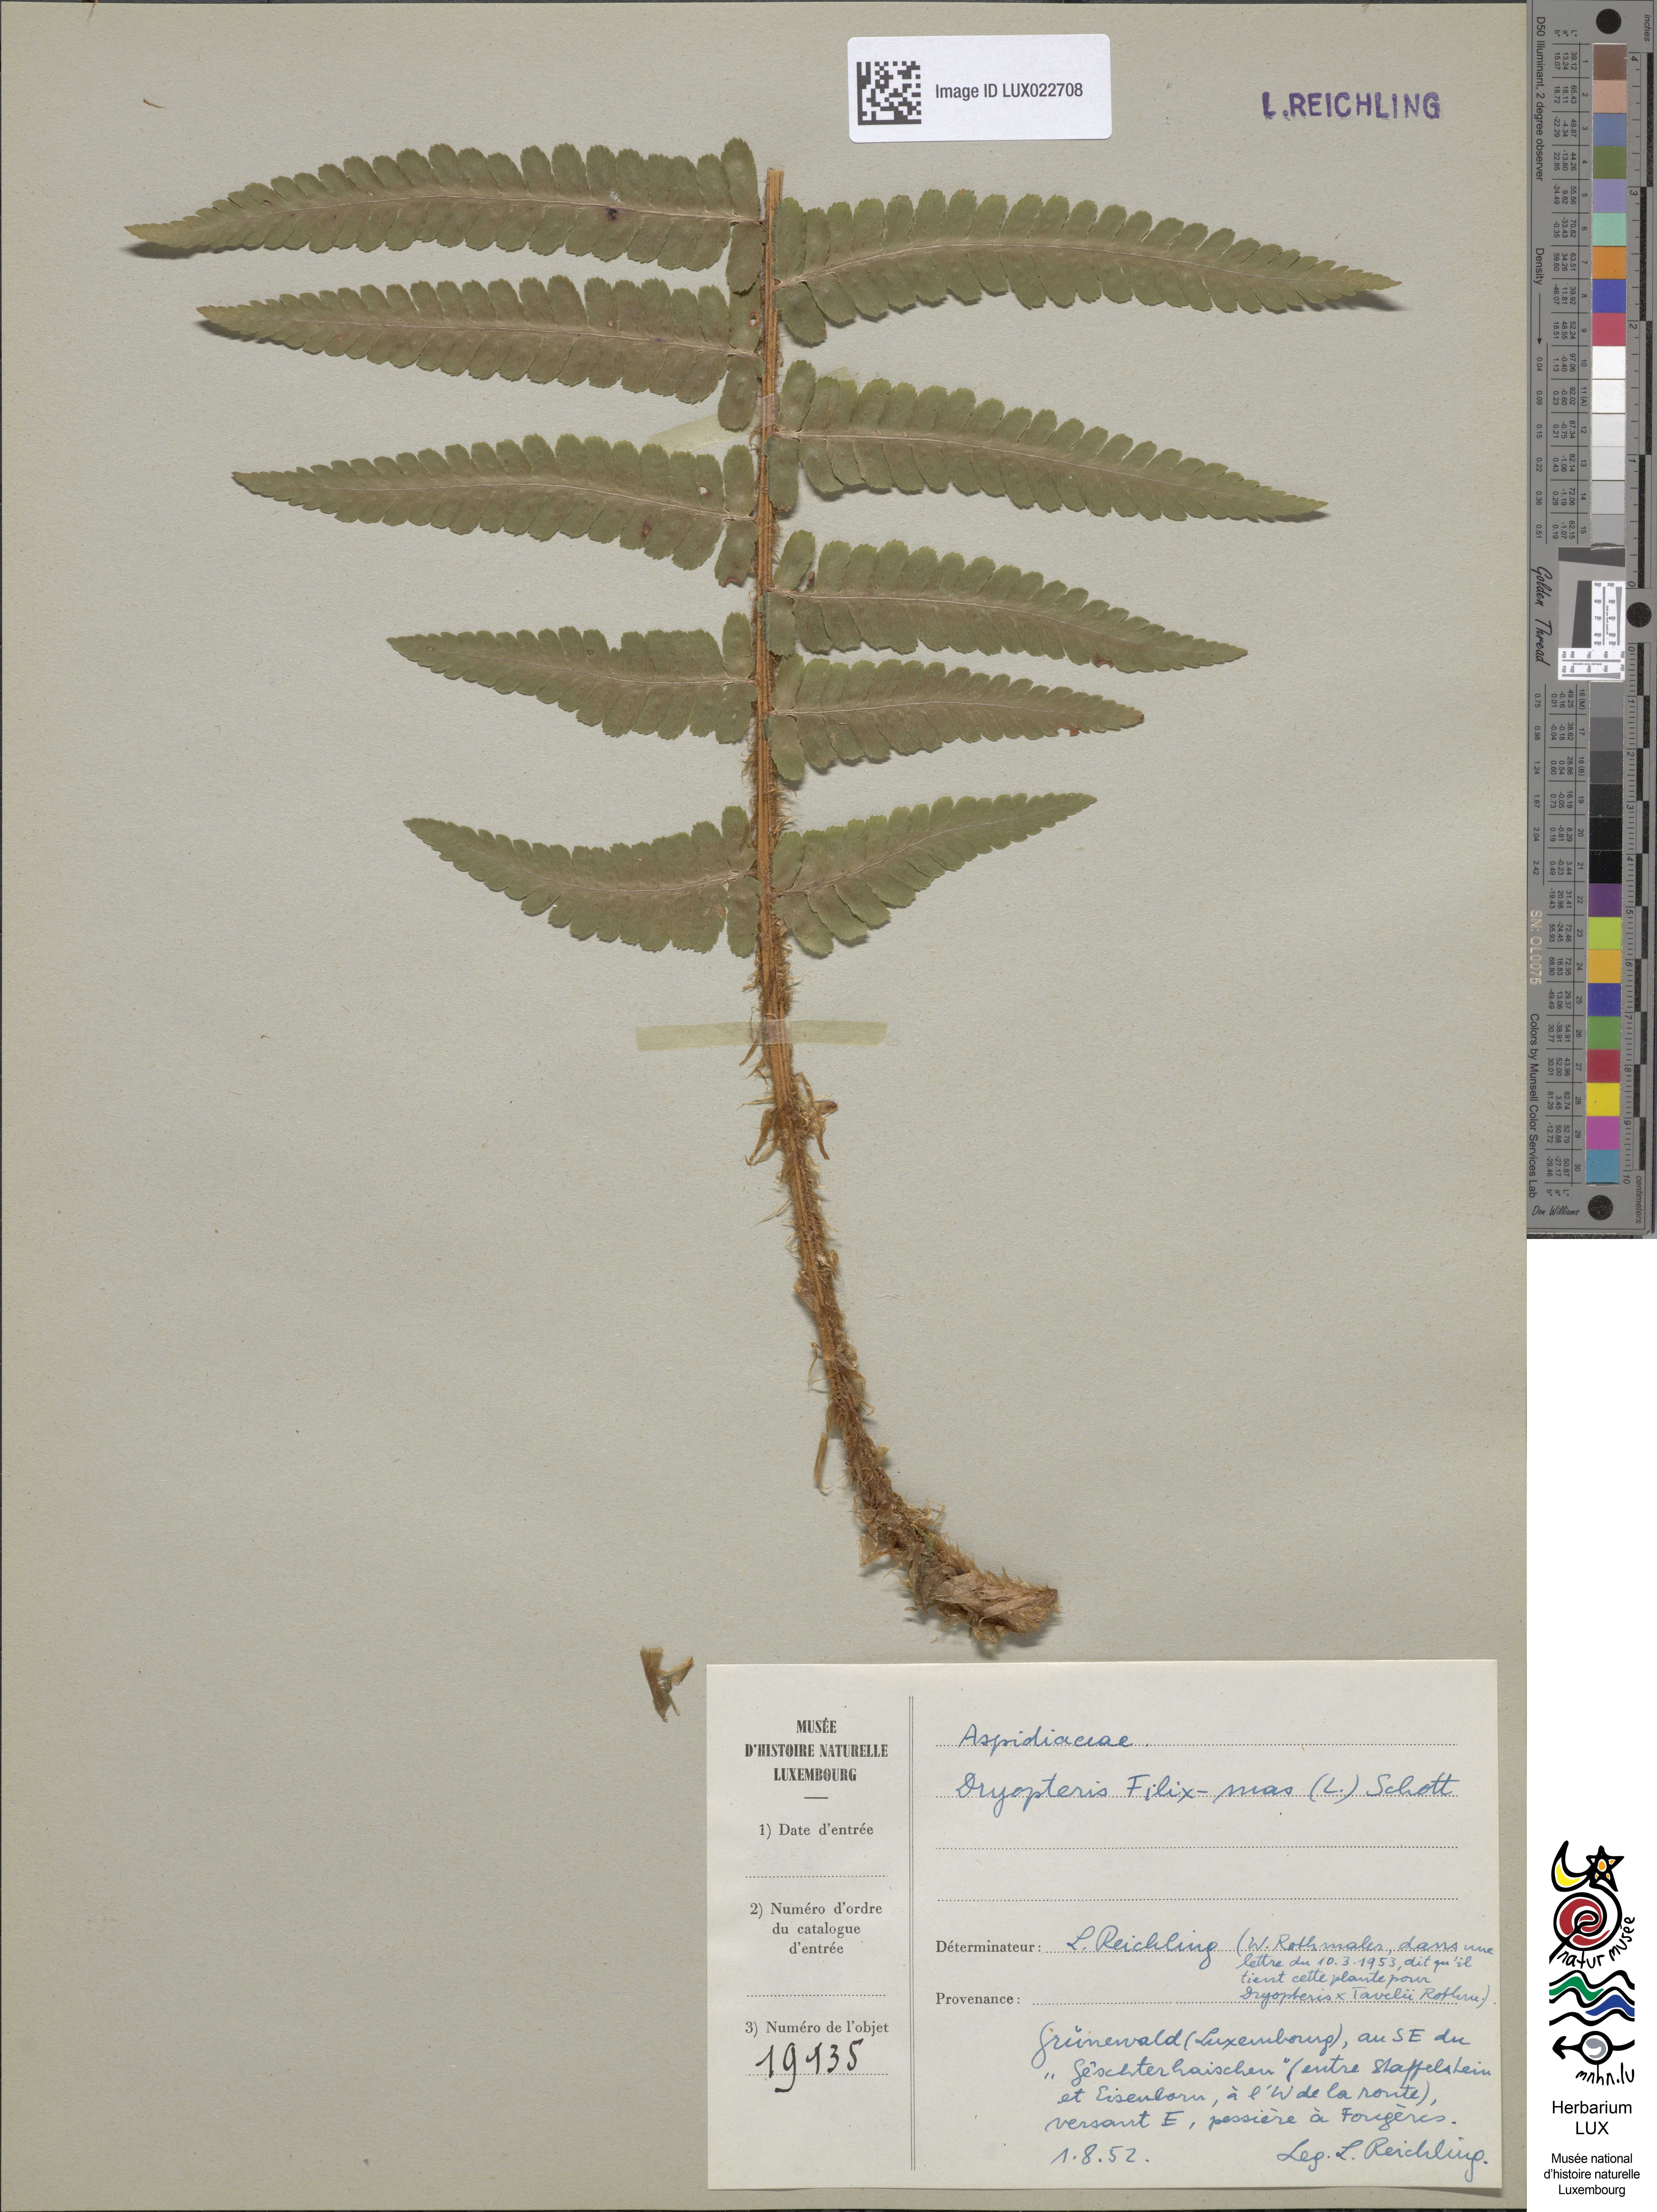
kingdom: Plantae
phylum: Tracheophyta
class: Polypodiopsida
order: Polypodiales
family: Dryopteridaceae
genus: Dryopteris
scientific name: Dryopteris filix-mas
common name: Male fern
